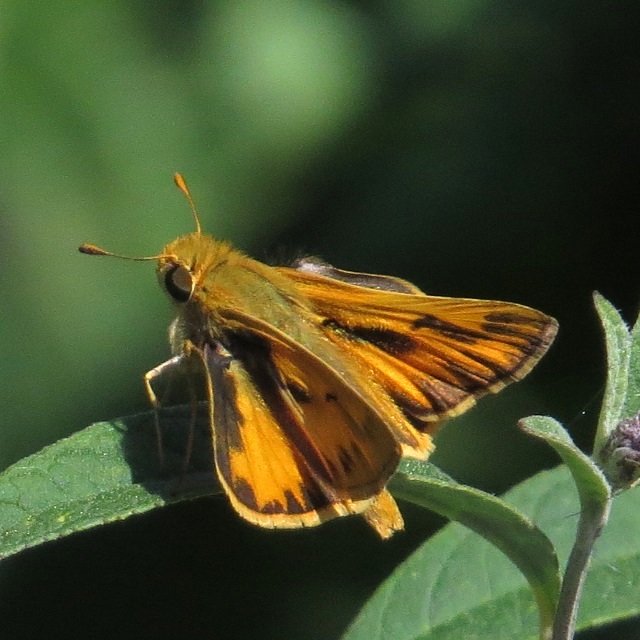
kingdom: Animalia
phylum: Arthropoda
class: Insecta
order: Lepidoptera
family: Hesperiidae
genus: Hylephila
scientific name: Hylephila phyleus
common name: Fiery Skipper
